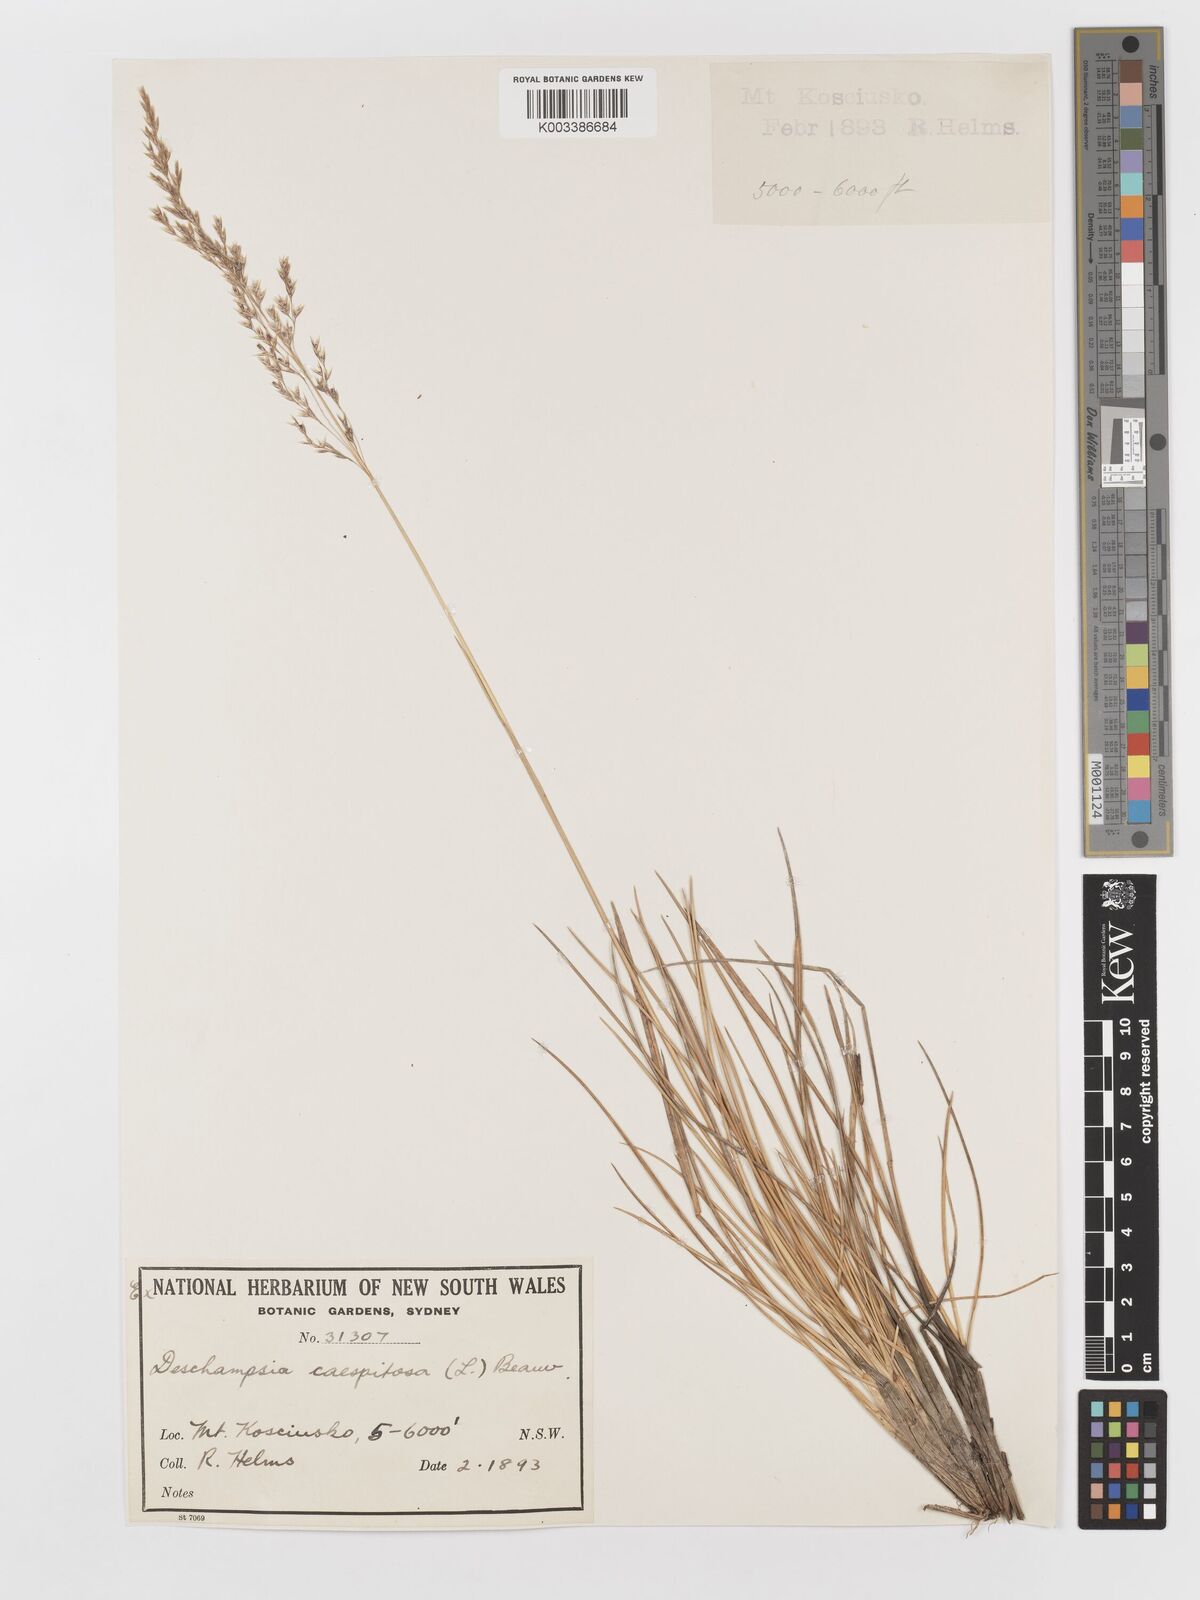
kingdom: Plantae
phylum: Tracheophyta
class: Liliopsida
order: Poales
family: Poaceae
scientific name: Poaceae
